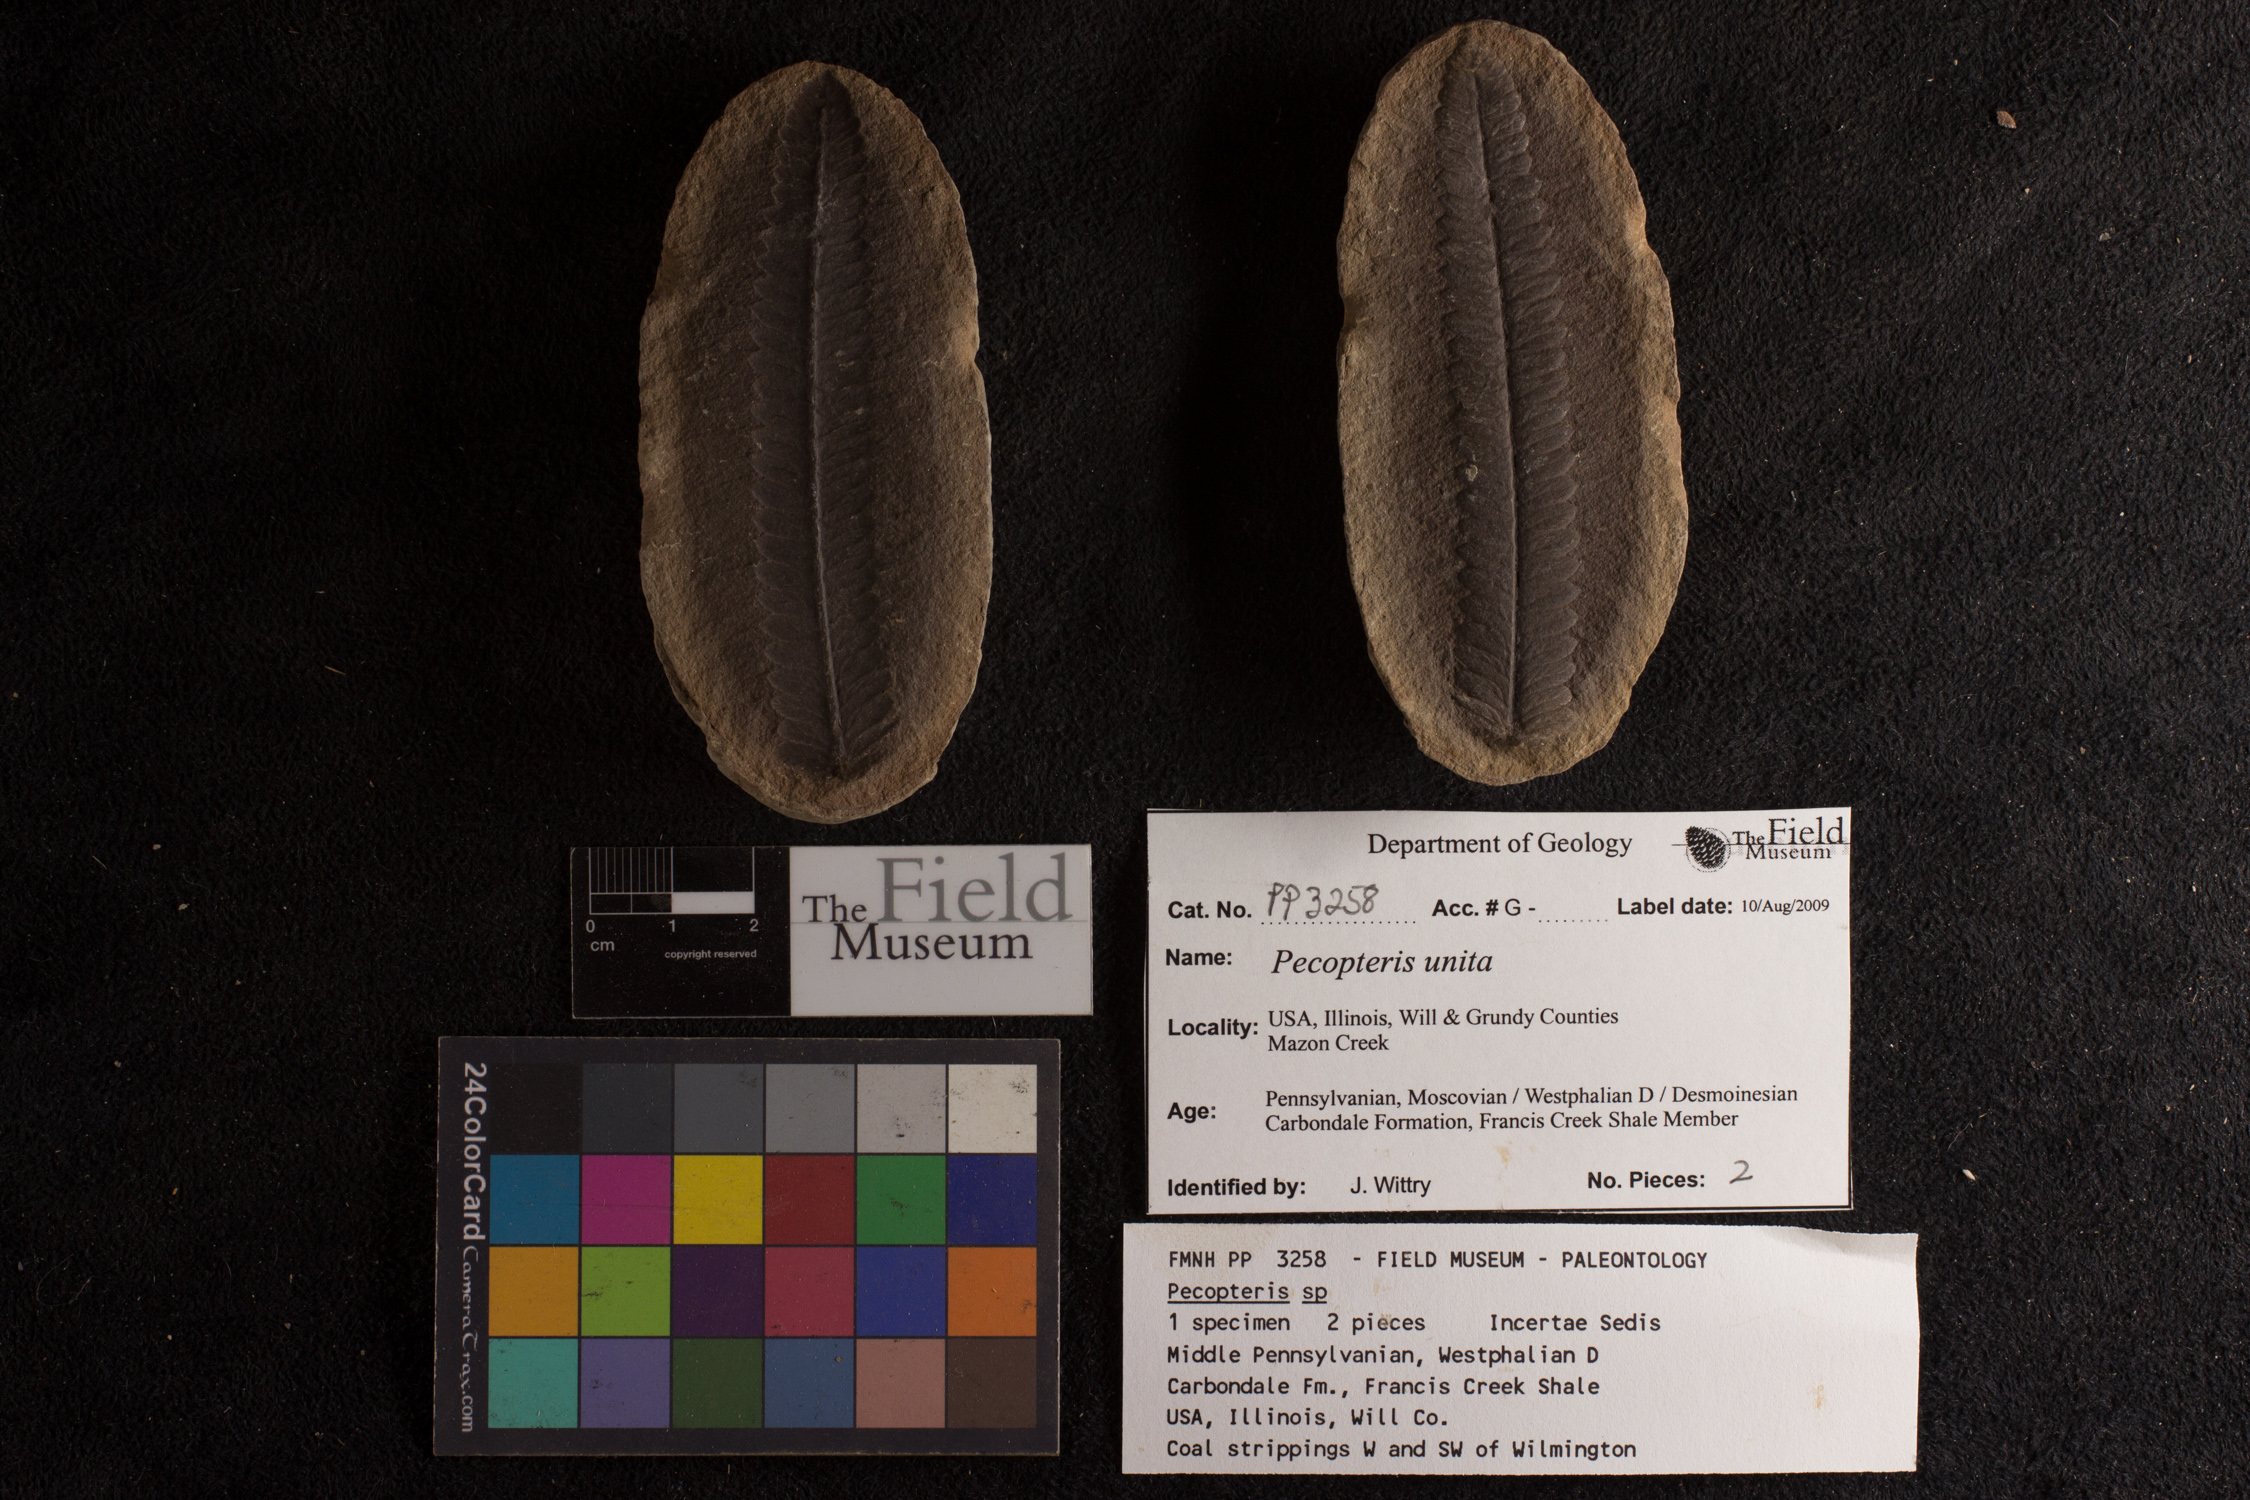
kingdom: Plantae
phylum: Tracheophyta
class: Polypodiopsida
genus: Diplazites
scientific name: Diplazites
